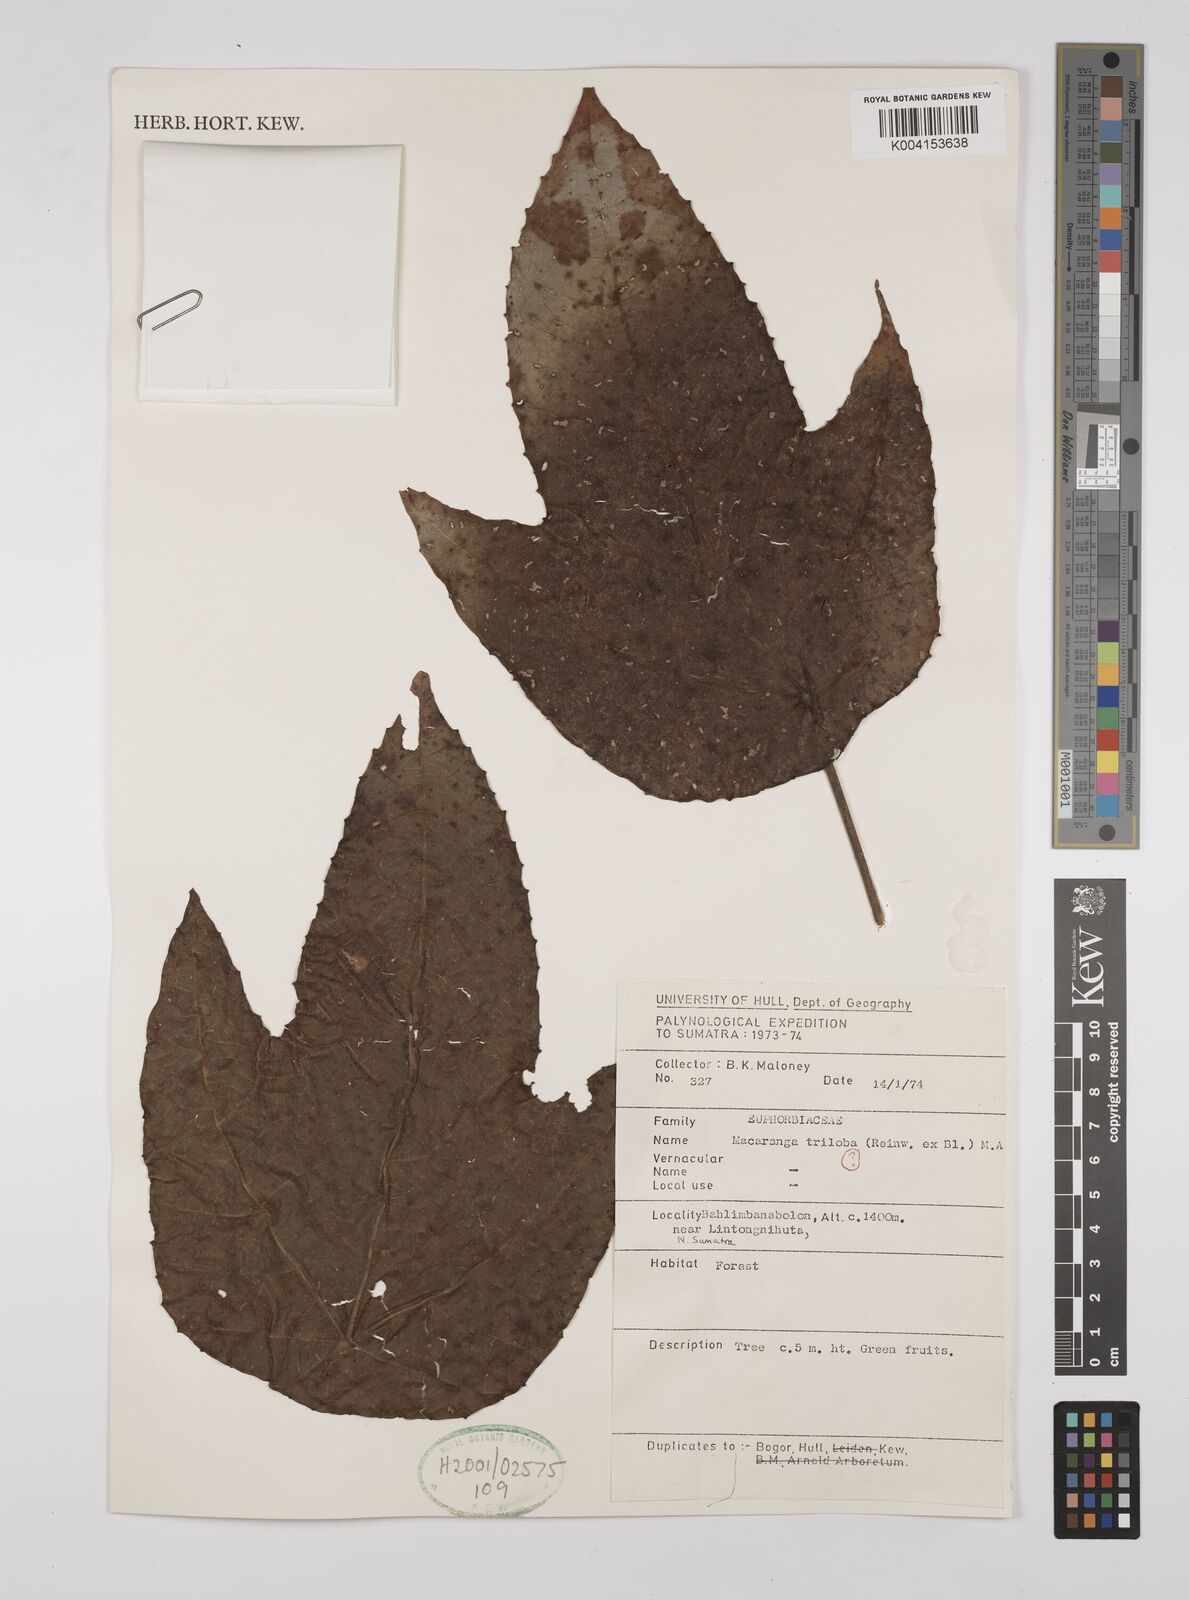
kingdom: Plantae
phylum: Tracheophyta
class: Magnoliopsida
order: Malpighiales
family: Euphorbiaceae
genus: Macaranga
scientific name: Macaranga triloba
